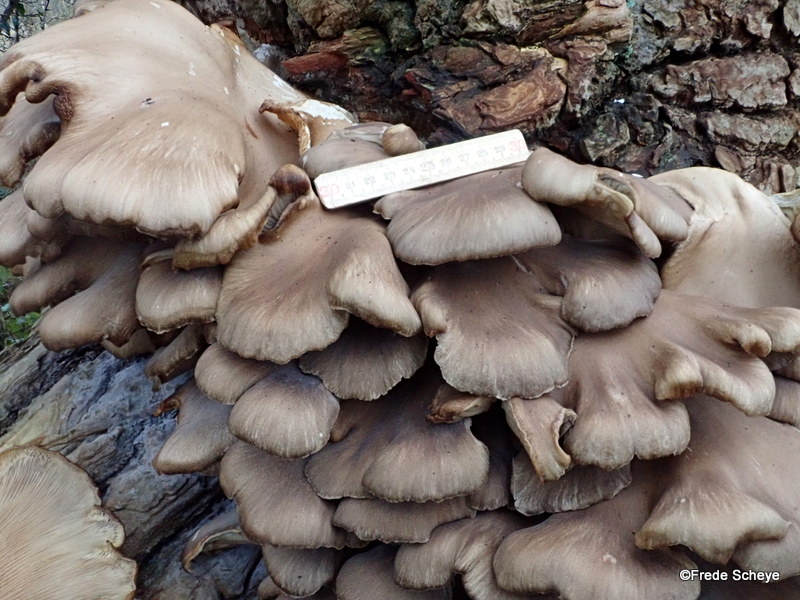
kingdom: Fungi
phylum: Basidiomycota
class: Agaricomycetes
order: Agaricales
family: Pleurotaceae
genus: Pleurotus
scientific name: Pleurotus ostreatus
